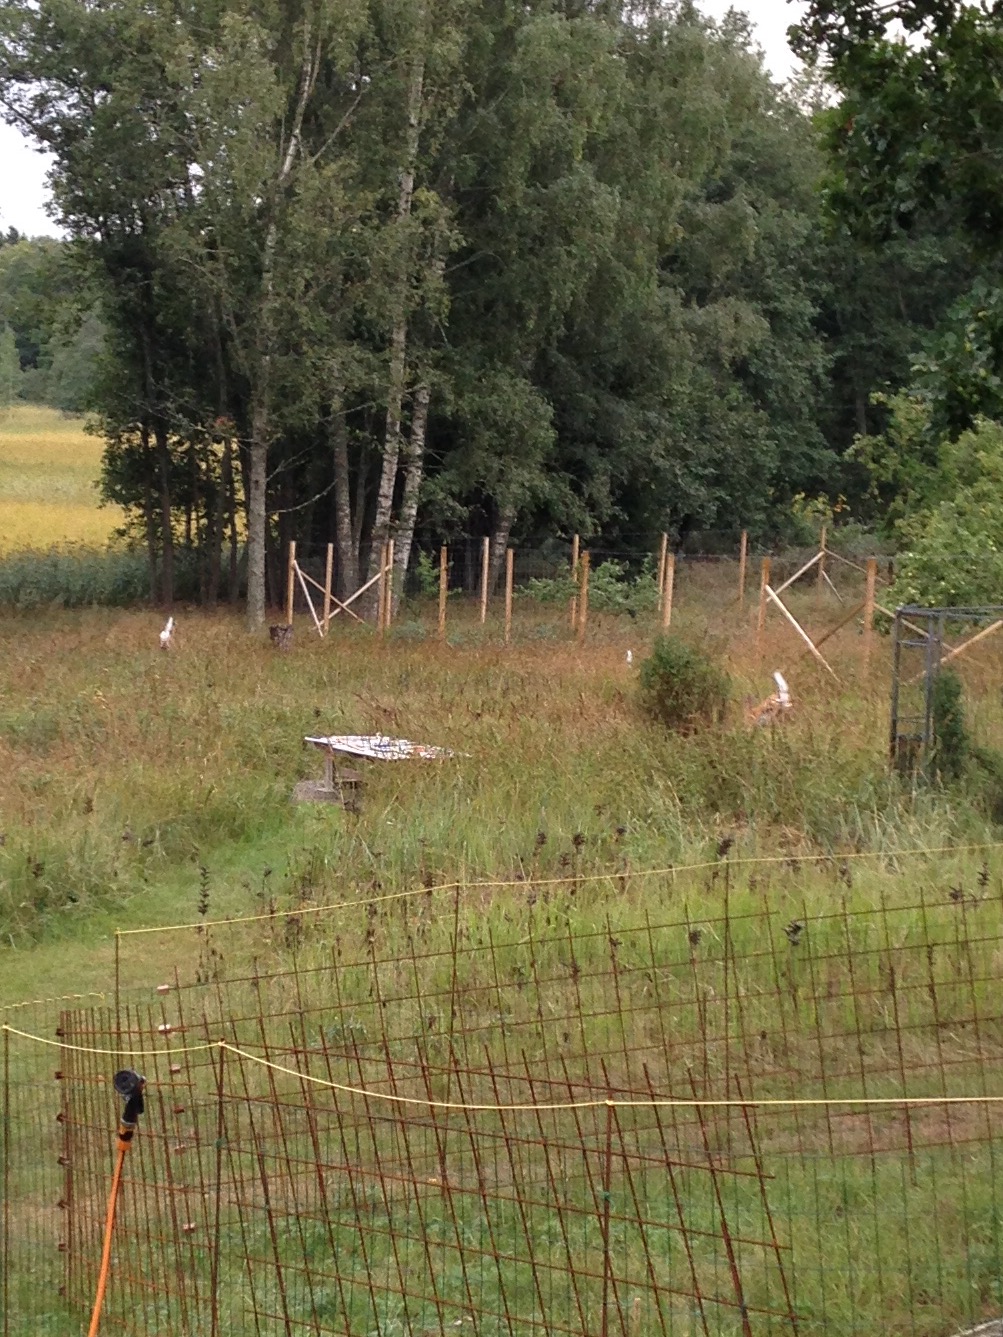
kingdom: Animalia
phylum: Chordata
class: Mammalia
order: Artiodactyla
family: Cervidae
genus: Odocoileus
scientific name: Odocoileus virginianus
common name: White-tailed deer
